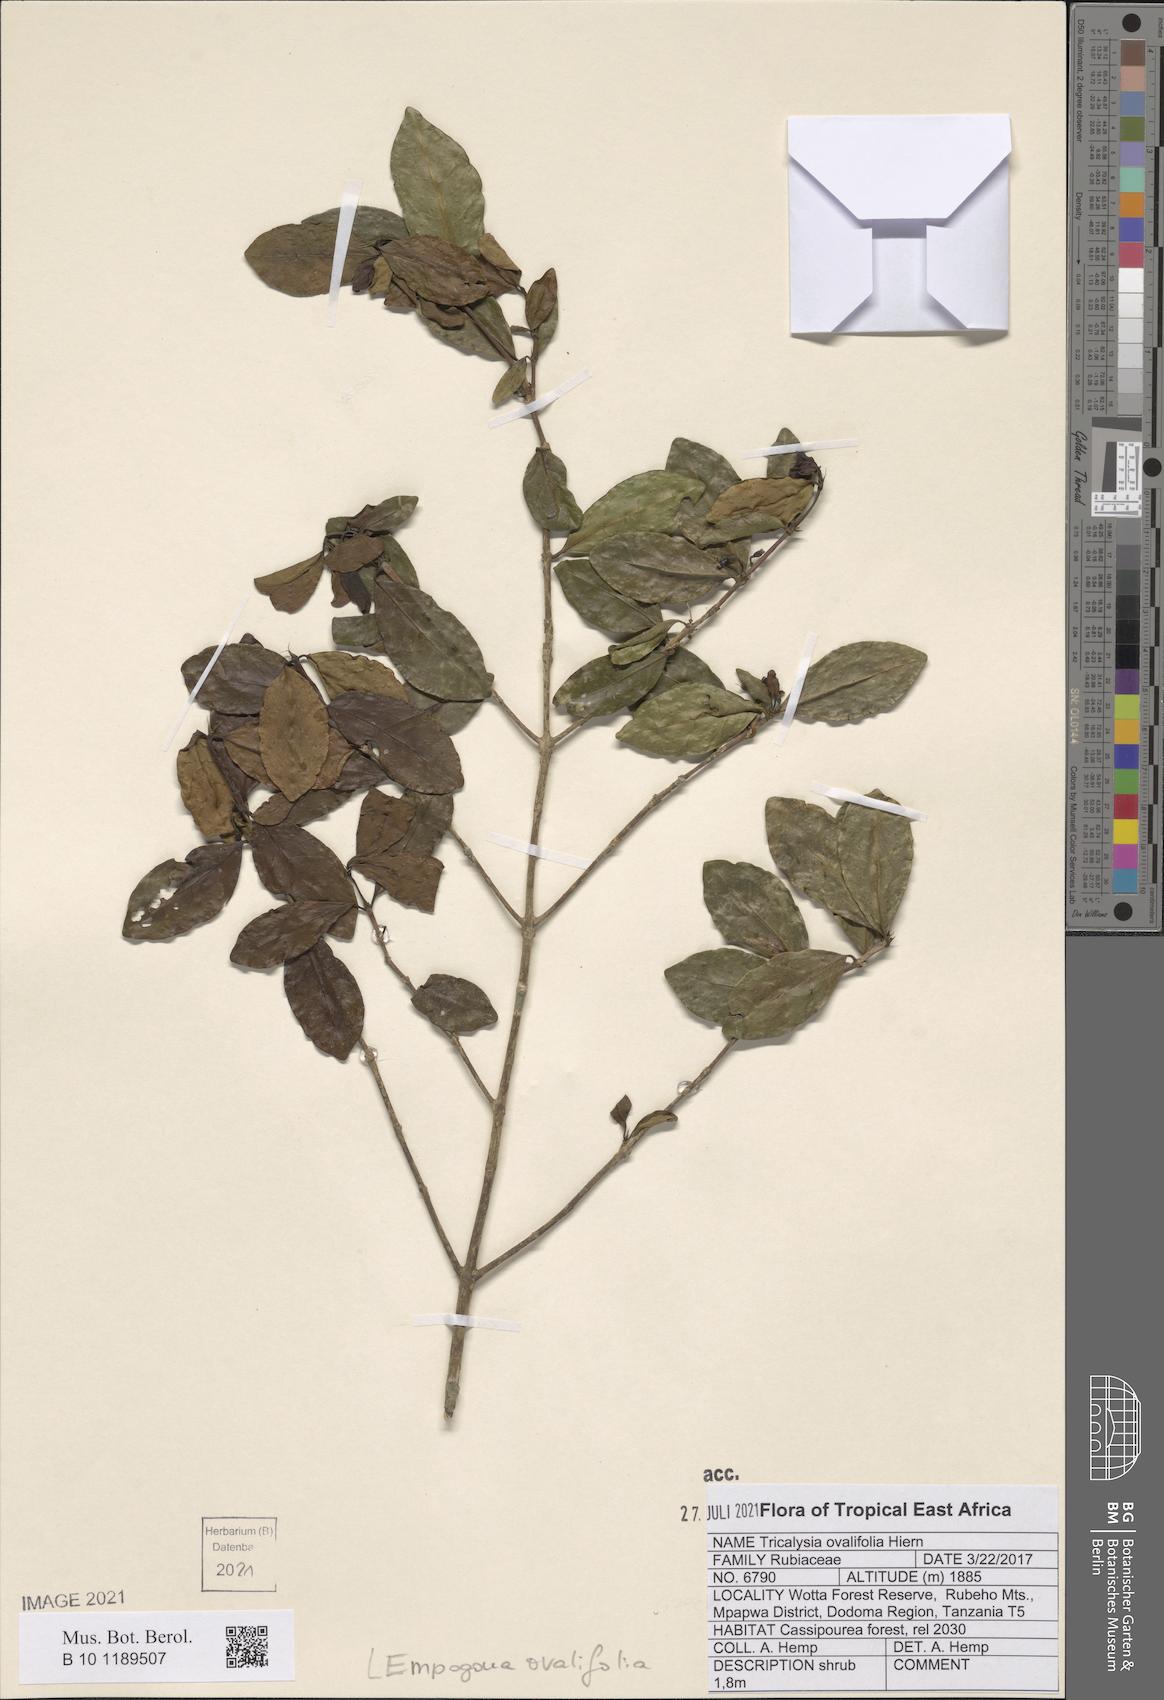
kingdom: Plantae
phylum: Tracheophyta
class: Magnoliopsida
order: Gentianales
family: Rubiaceae
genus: Empogona
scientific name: Empogona ovalifolia
